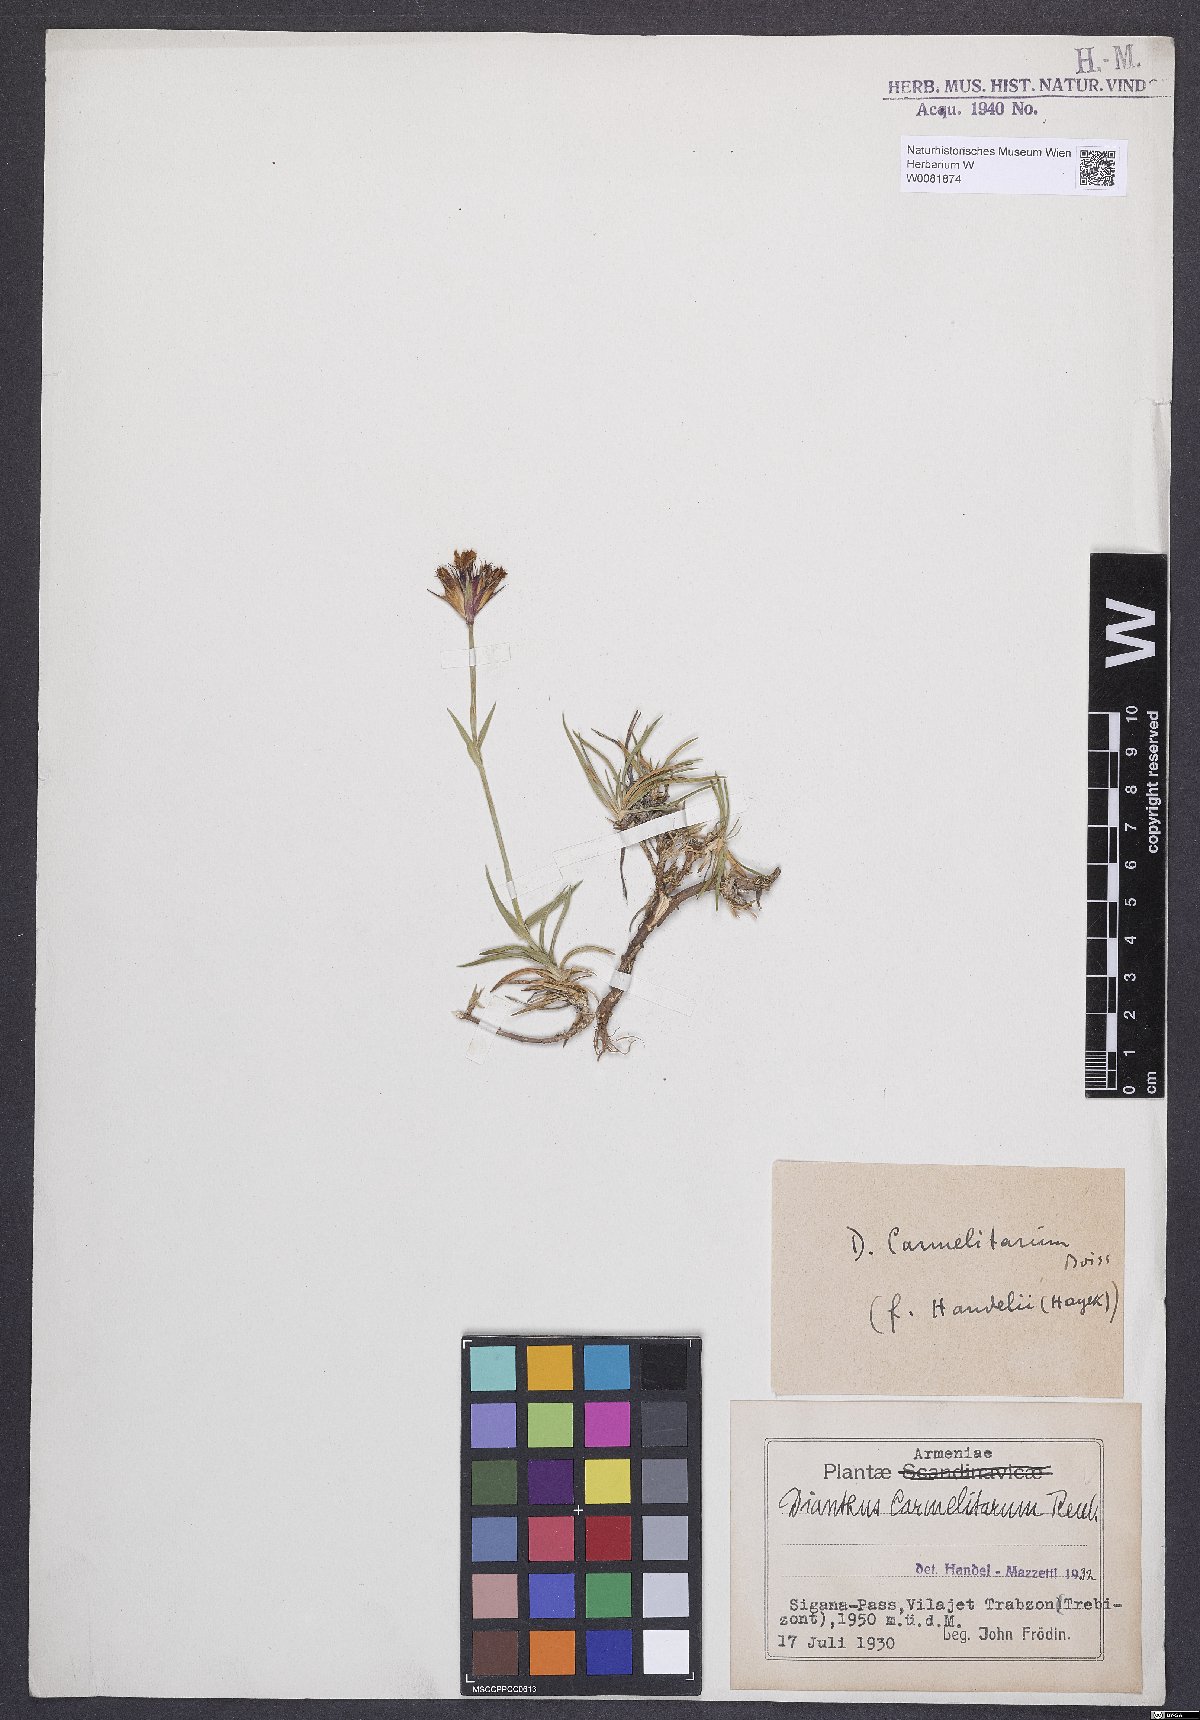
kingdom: Plantae
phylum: Tracheophyta
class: Magnoliopsida
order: Caryophyllales
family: Caryophyllaceae
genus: Dianthus
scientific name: Dianthus carmelitarum
